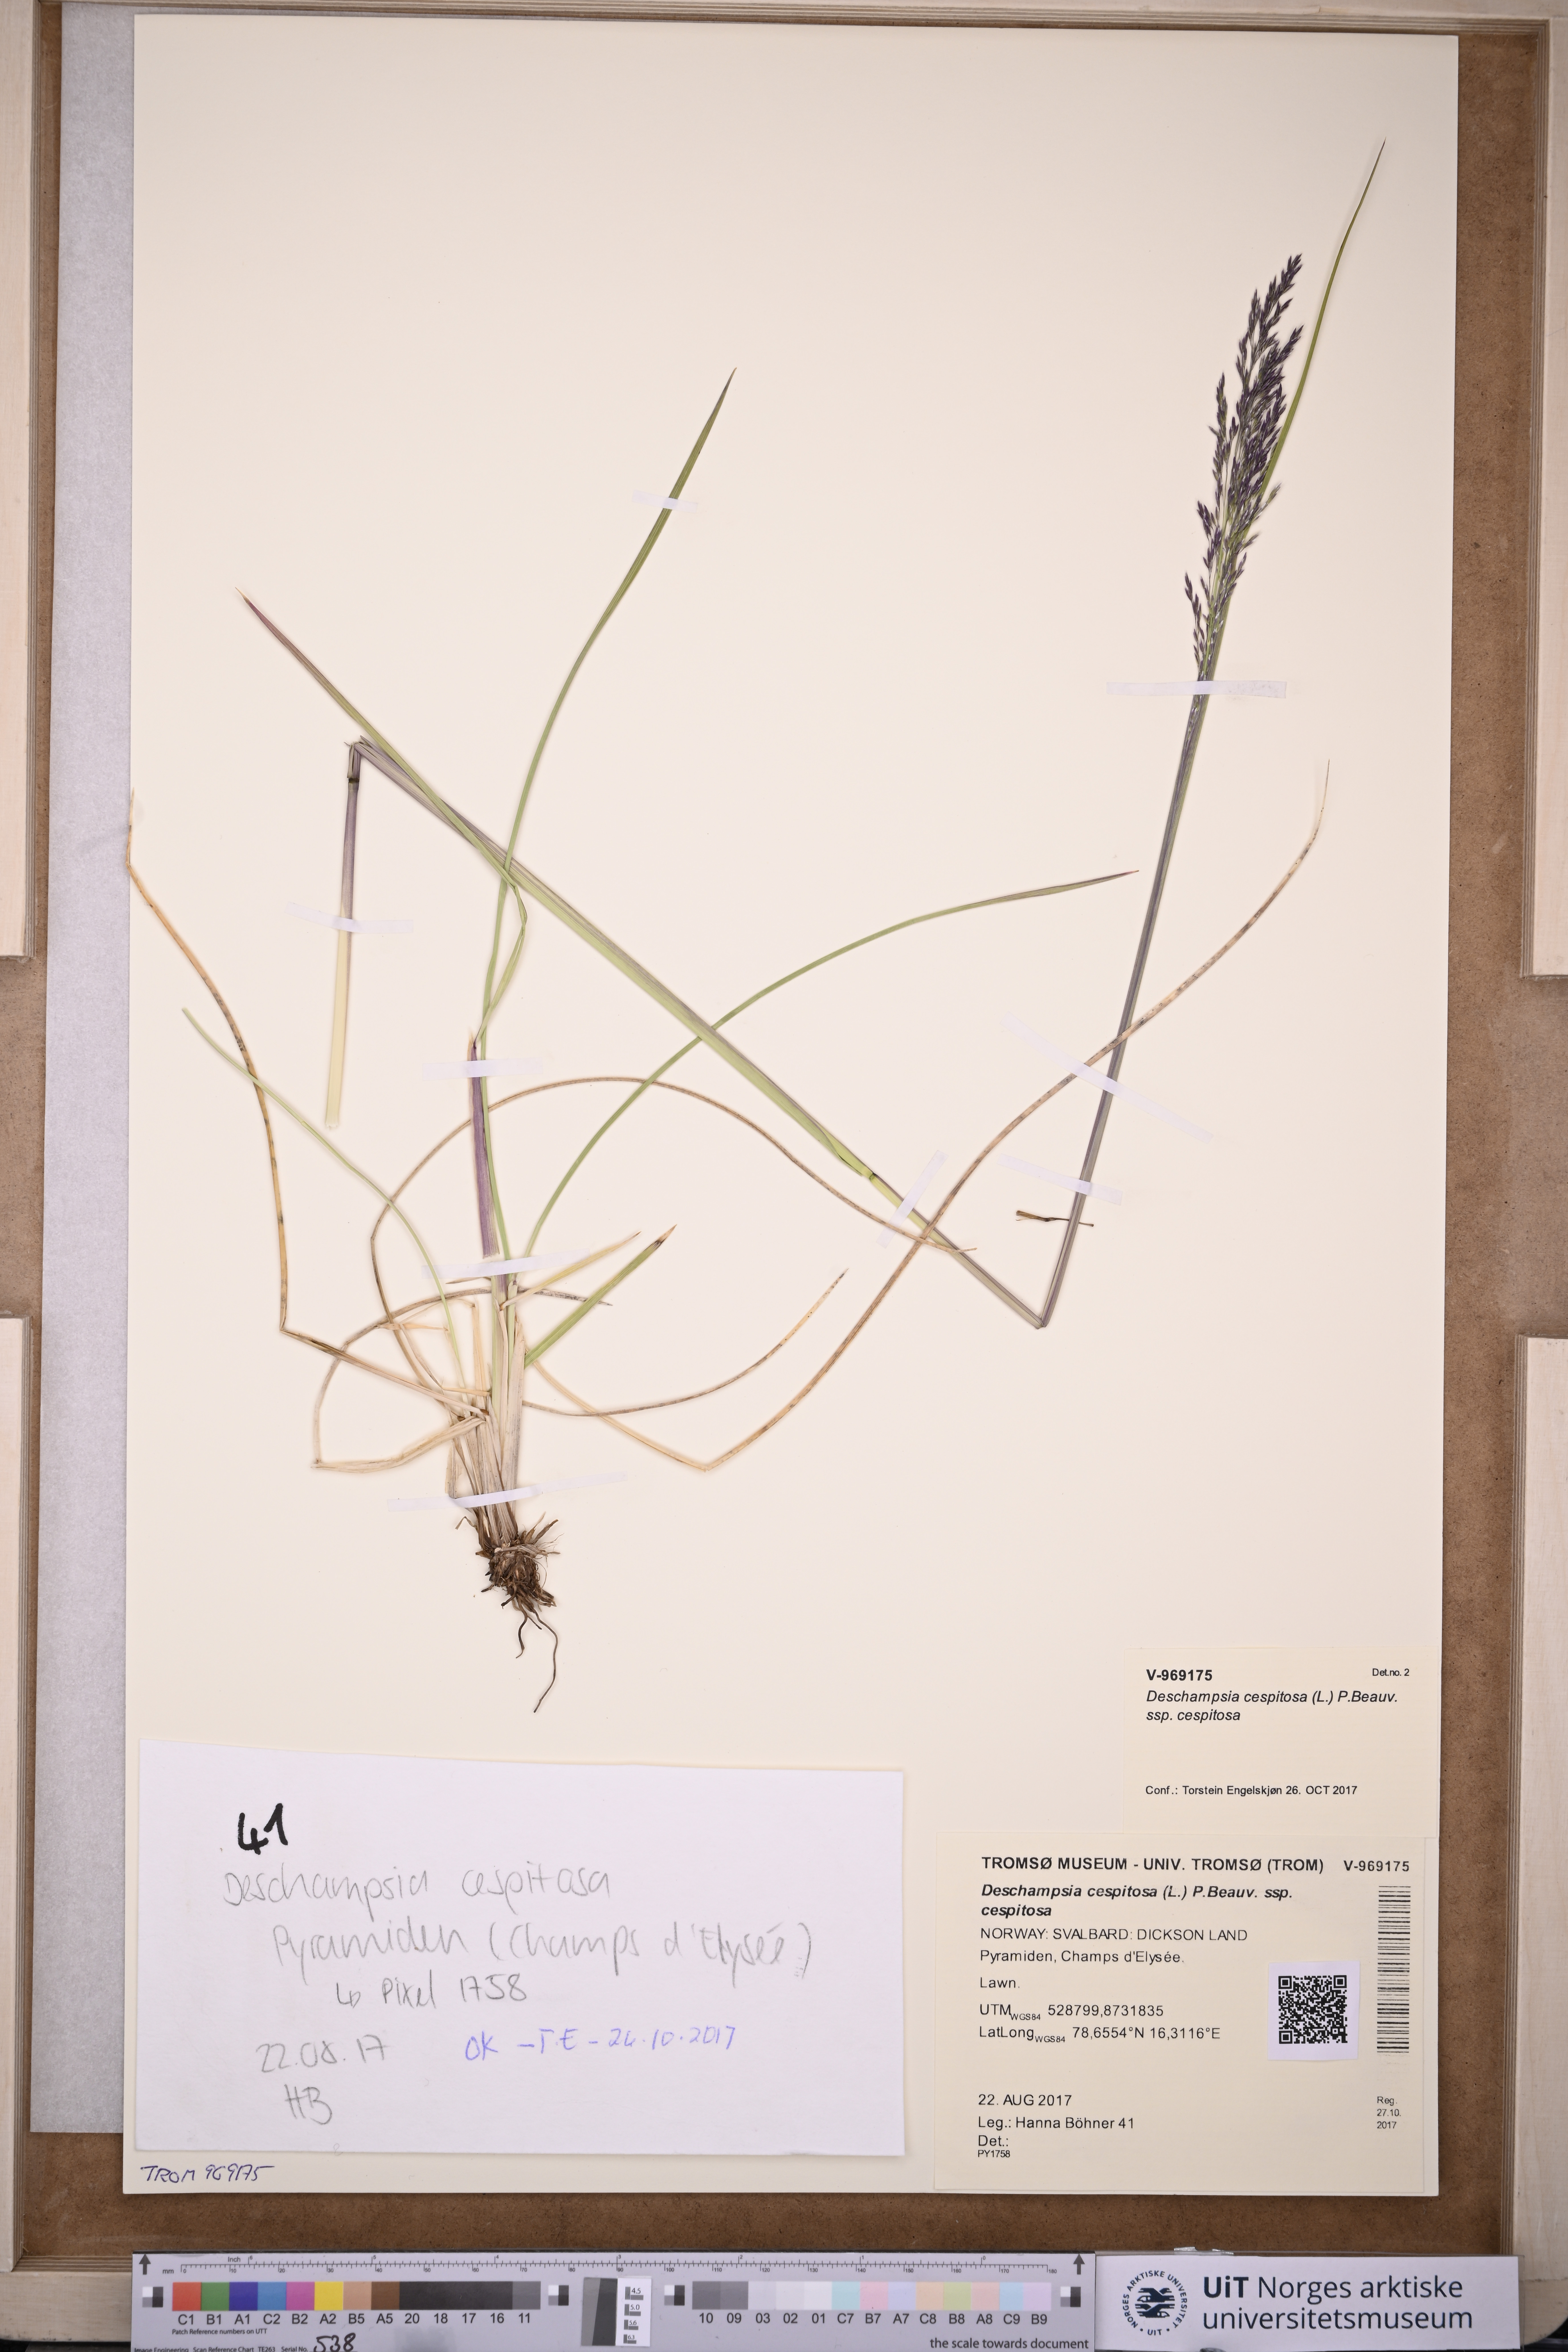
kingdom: Plantae
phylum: Tracheophyta
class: Liliopsida
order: Poales
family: Poaceae
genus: Deschampsia
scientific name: Deschampsia cespitosa
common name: Tufted hair-grass
